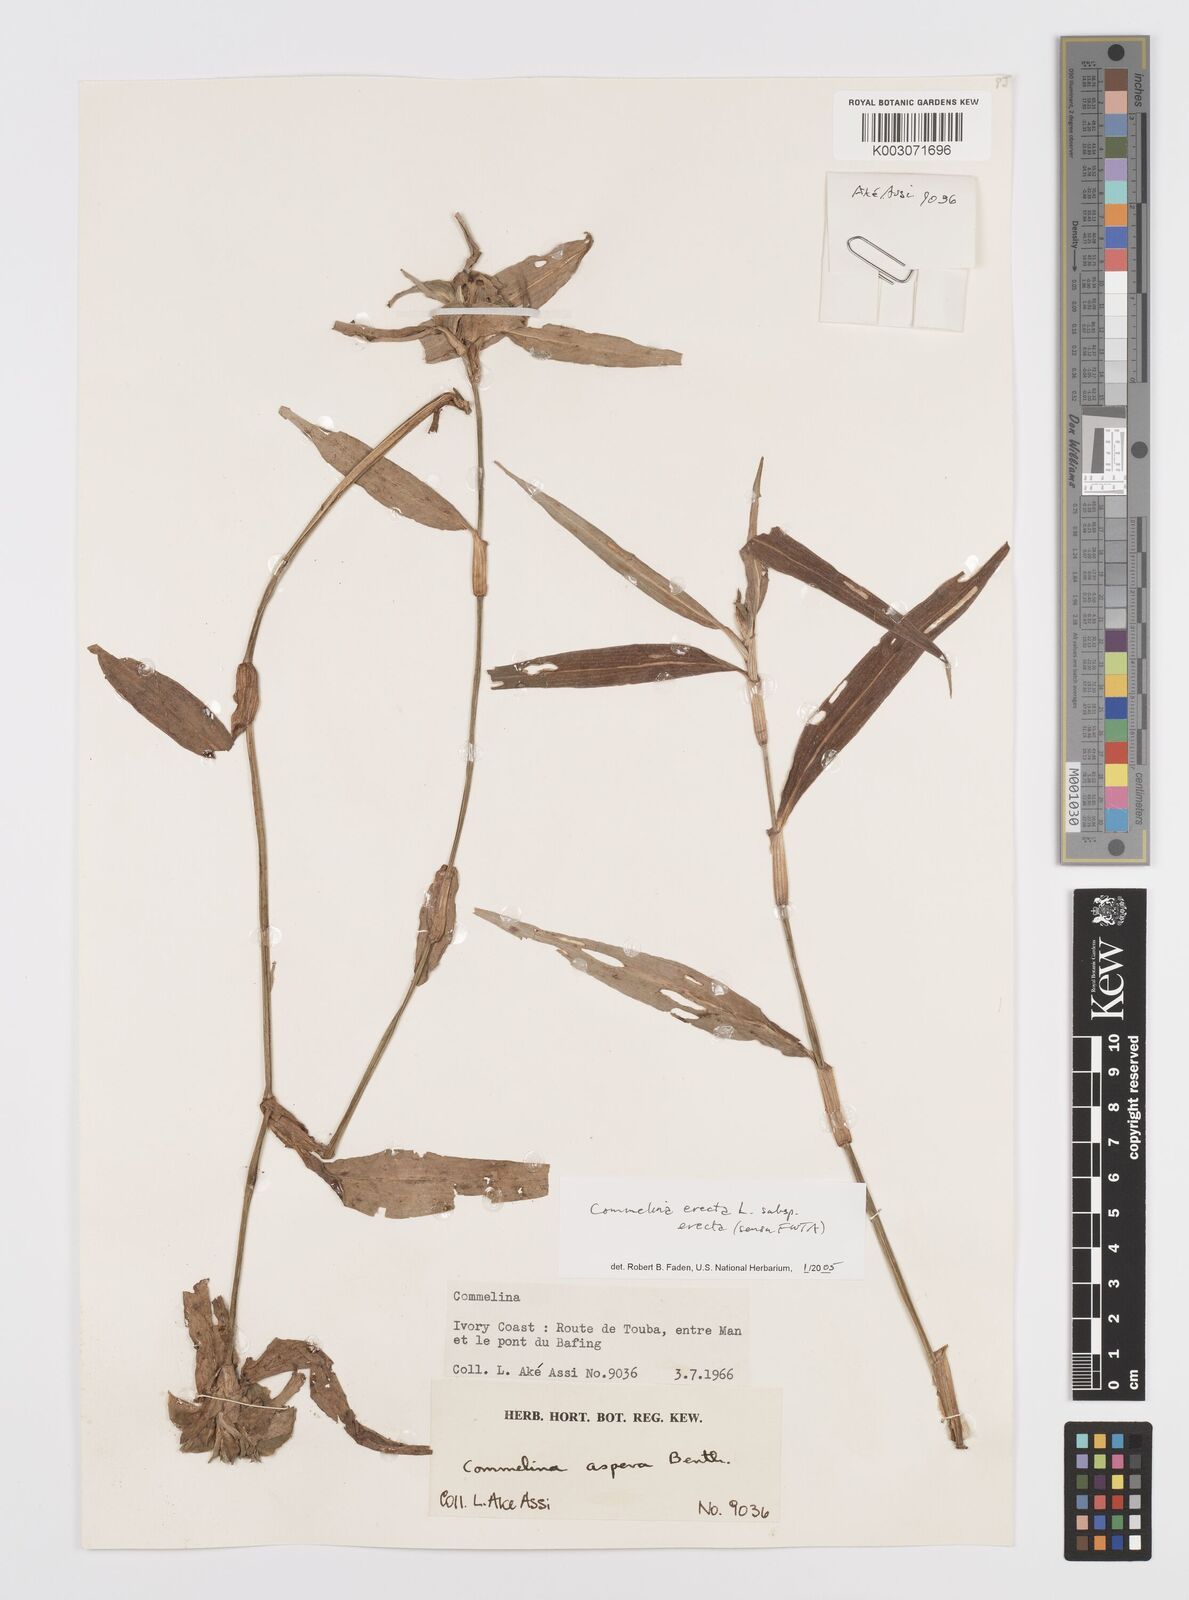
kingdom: Plantae
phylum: Tracheophyta
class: Liliopsida
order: Commelinales
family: Commelinaceae
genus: Commelina
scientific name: Commelina erecta
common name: Blousel blommetjie
